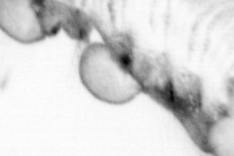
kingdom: Animalia
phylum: Chordata
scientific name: Chordata
